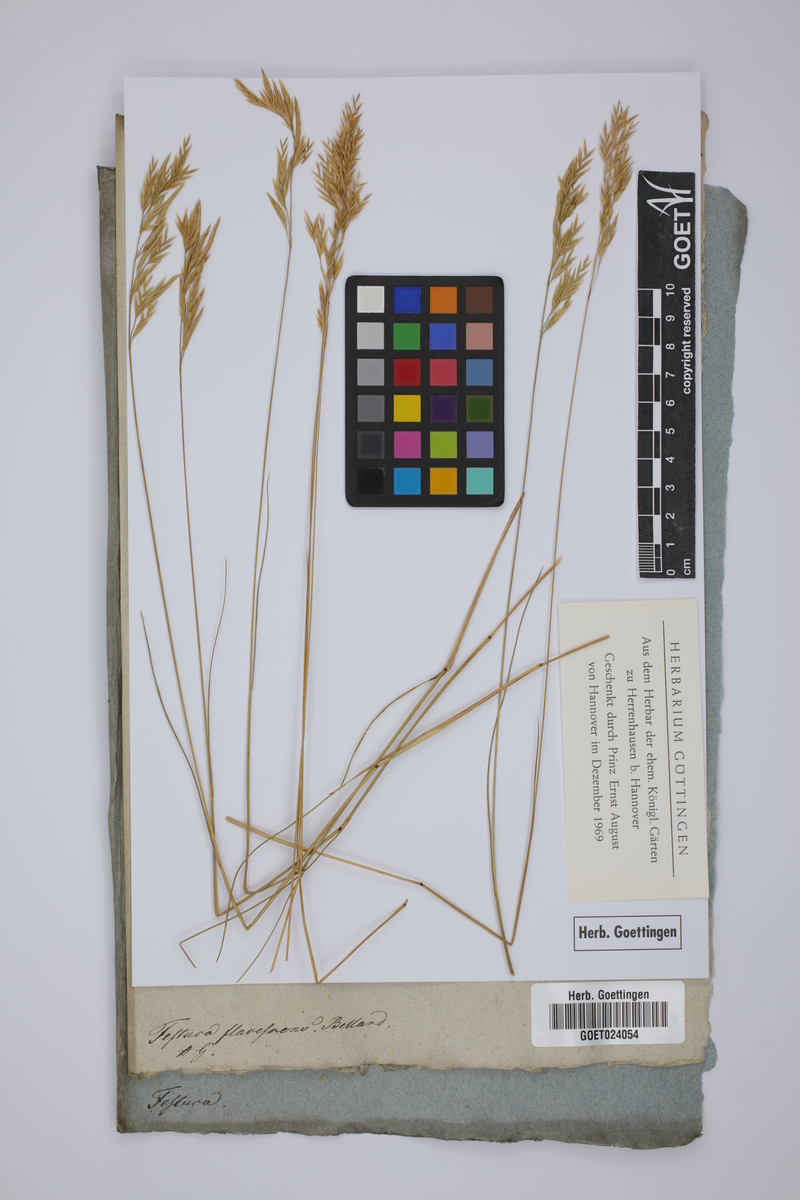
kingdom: Plantae
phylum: Tracheophyta
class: Liliopsida
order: Poales
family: Poaceae
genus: Festuca
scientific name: Festuca flavescens
